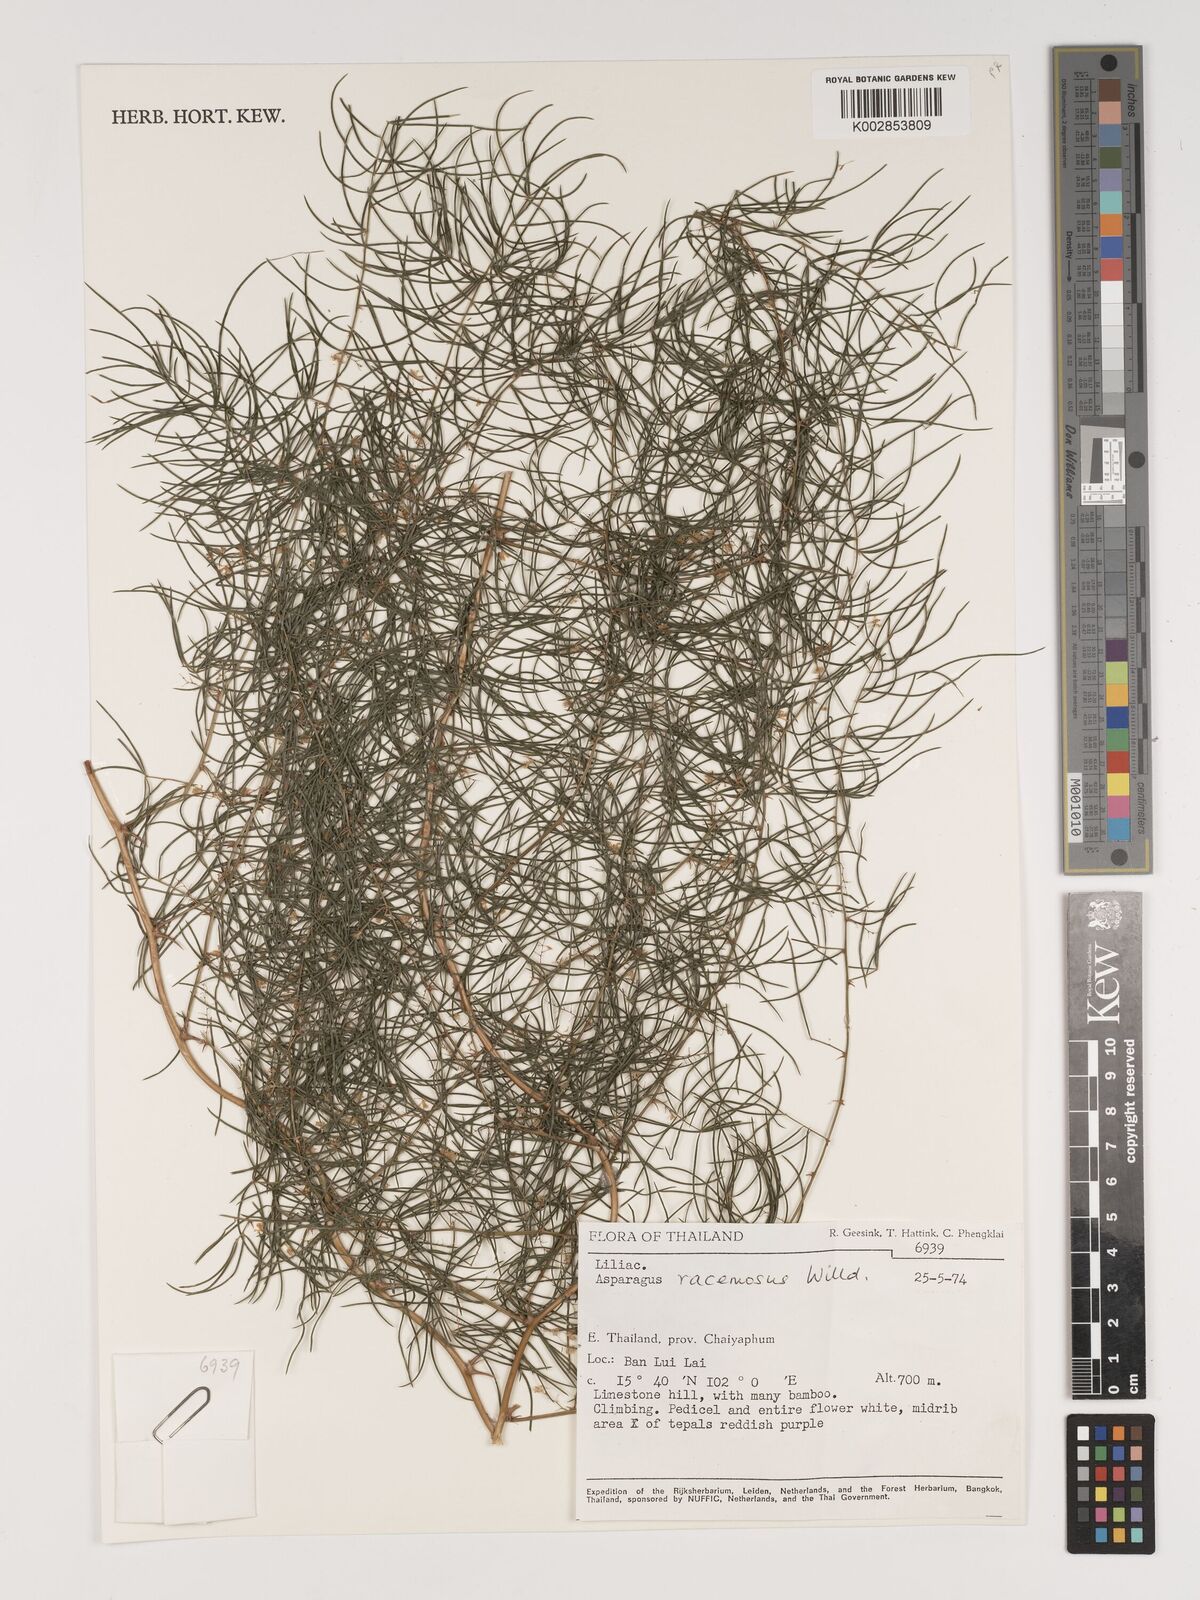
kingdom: Plantae
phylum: Tracheophyta
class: Liliopsida
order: Asparagales
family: Asparagaceae
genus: Asparagus
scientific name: Asparagus racemosus
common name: Asparagus-fern
